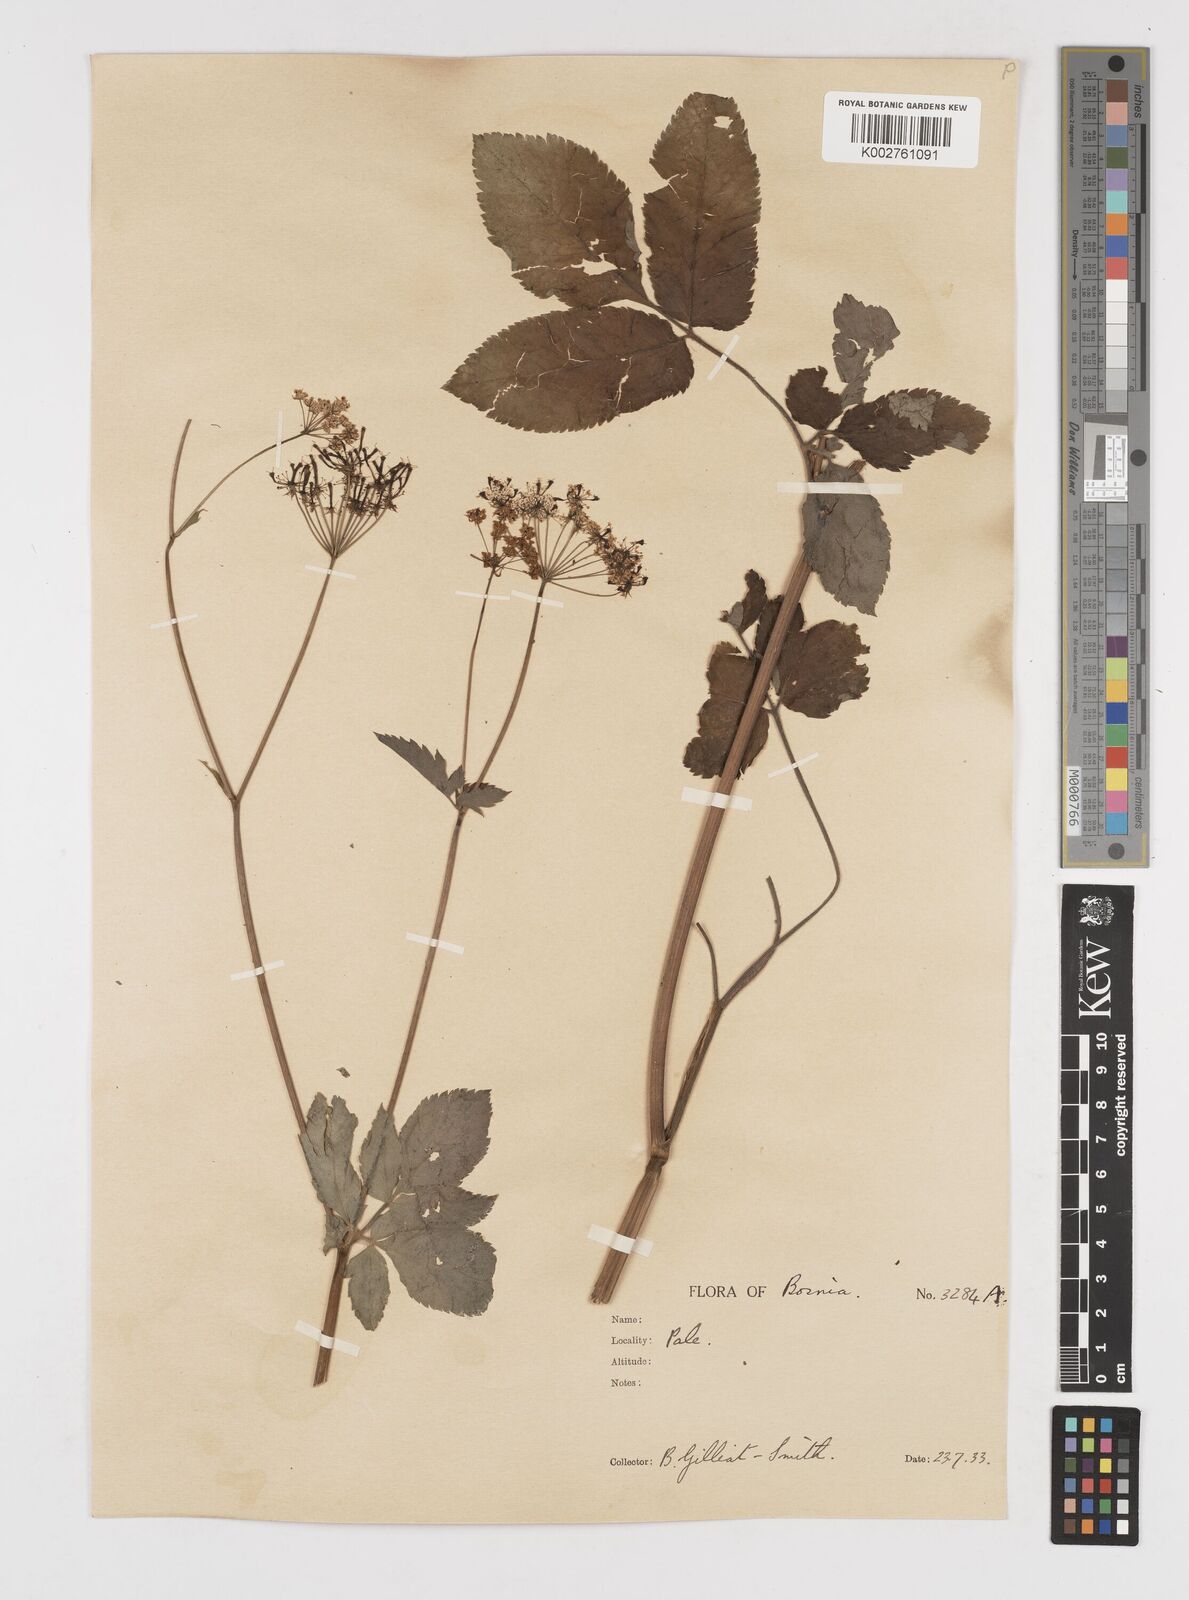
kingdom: Plantae
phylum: Tracheophyta
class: Magnoliopsida
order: Apiales
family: Apiaceae
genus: Chaerophyllum
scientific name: Chaerophyllum aromaticum
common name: Broadleaf chervil
